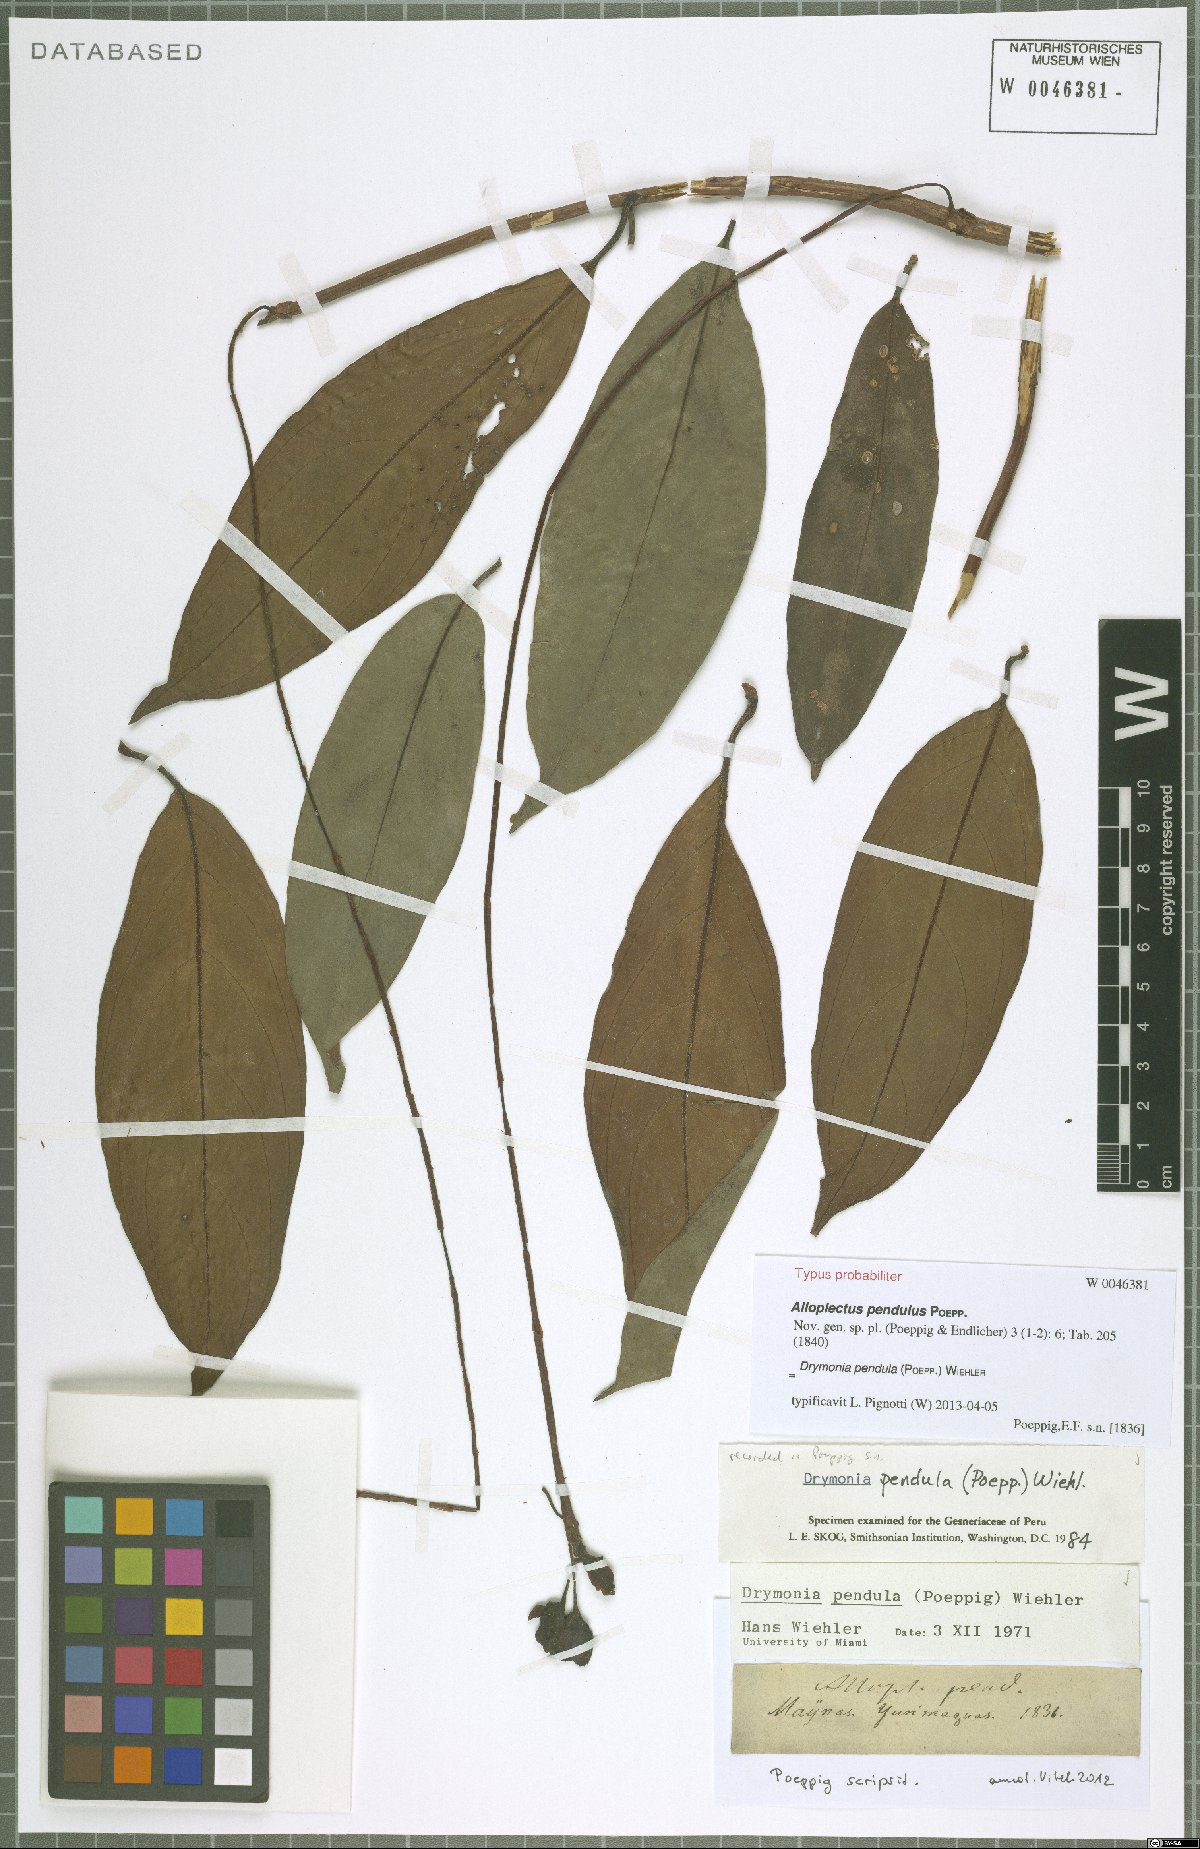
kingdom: Plantae
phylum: Tracheophyta
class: Magnoliopsida
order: Lamiales
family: Gesneriaceae
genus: Drymonia
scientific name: Drymonia pendula
